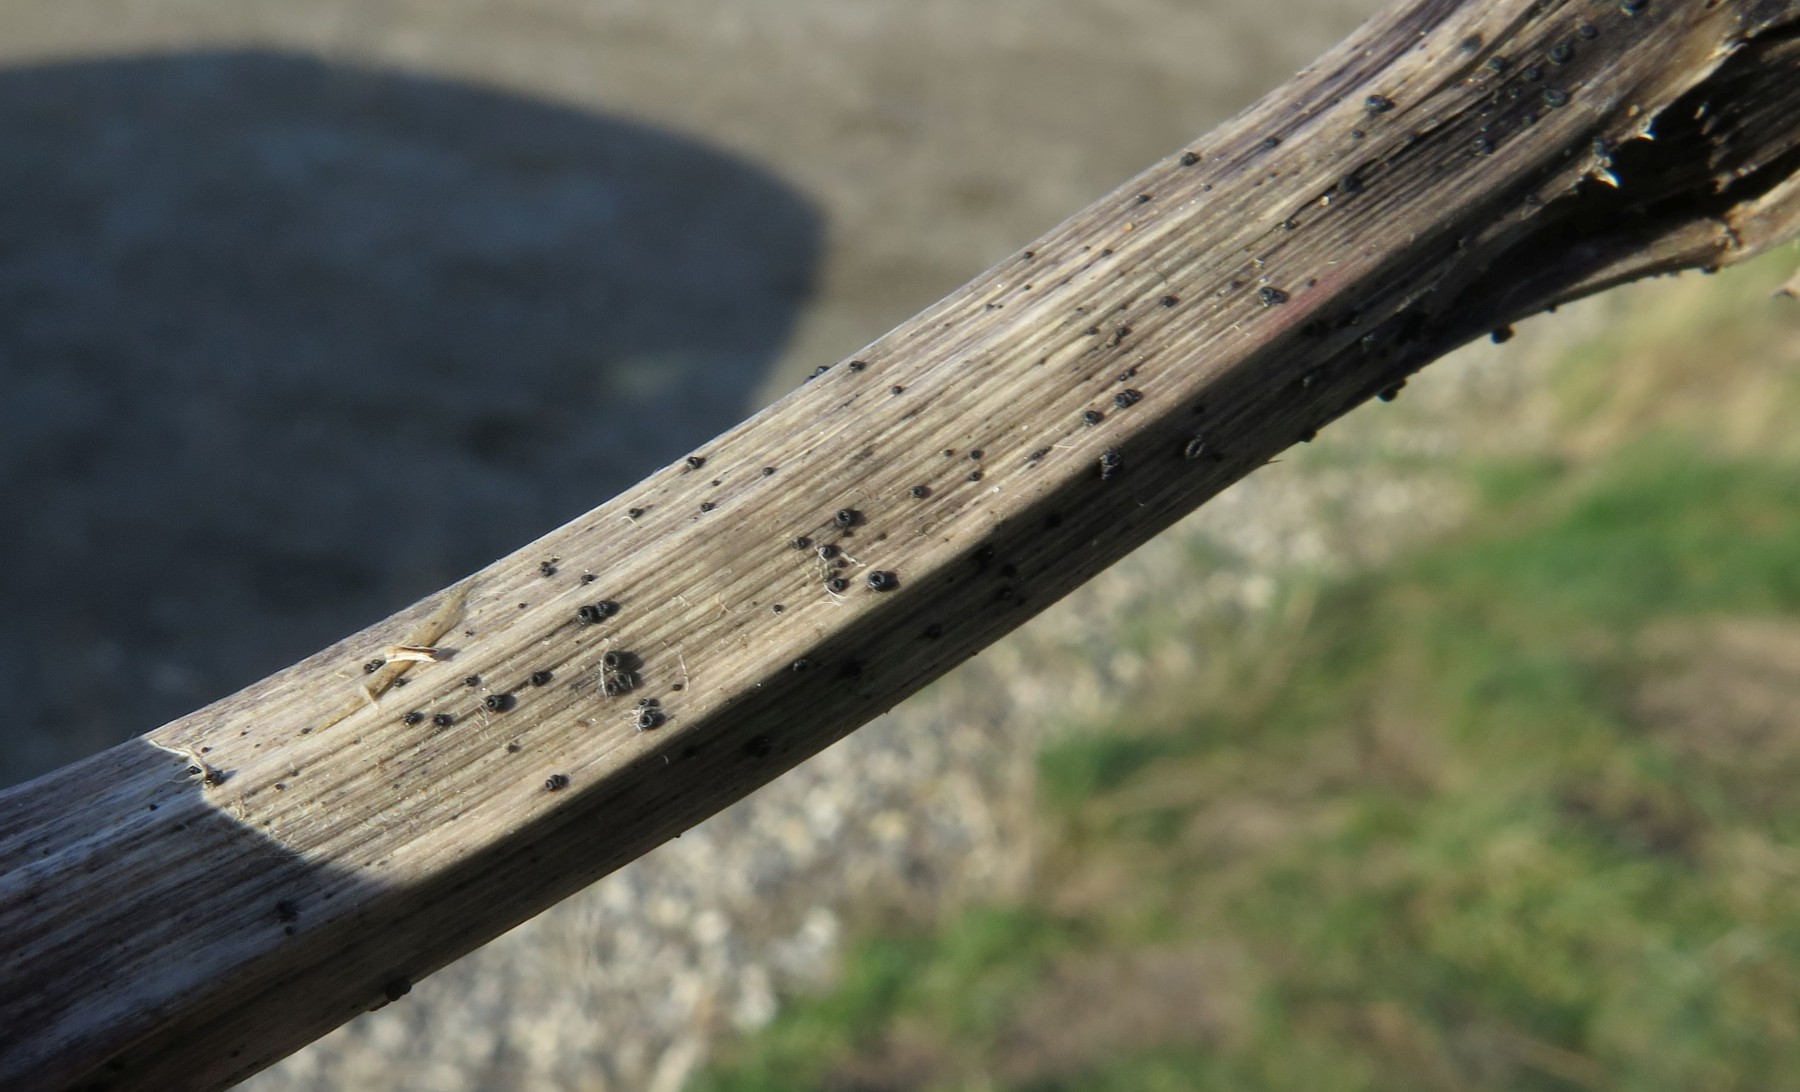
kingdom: Fungi
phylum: Ascomycota
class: Leotiomycetes
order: Helotiales
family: Heterosphaeriaceae
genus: Heterosphaeria
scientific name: Heterosphaeria
